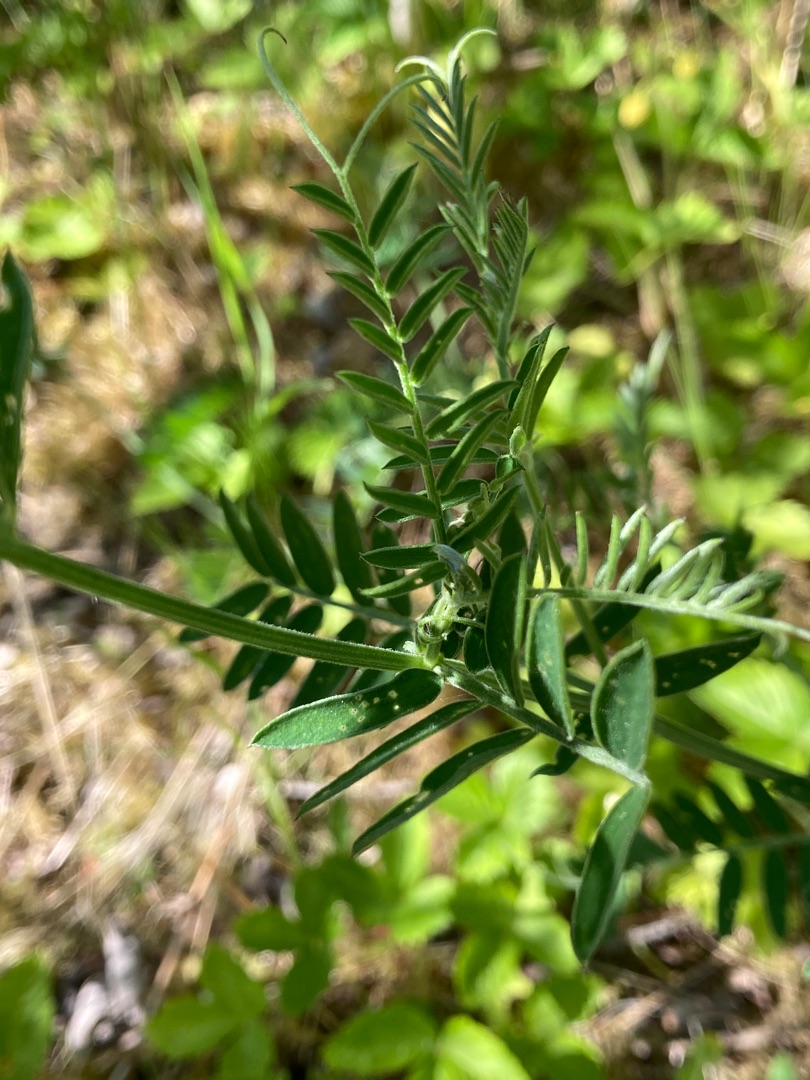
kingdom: Plantae
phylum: Tracheophyta
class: Magnoliopsida
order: Fabales
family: Fabaceae
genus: Vicia
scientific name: Vicia cracca
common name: Muse-vikke
